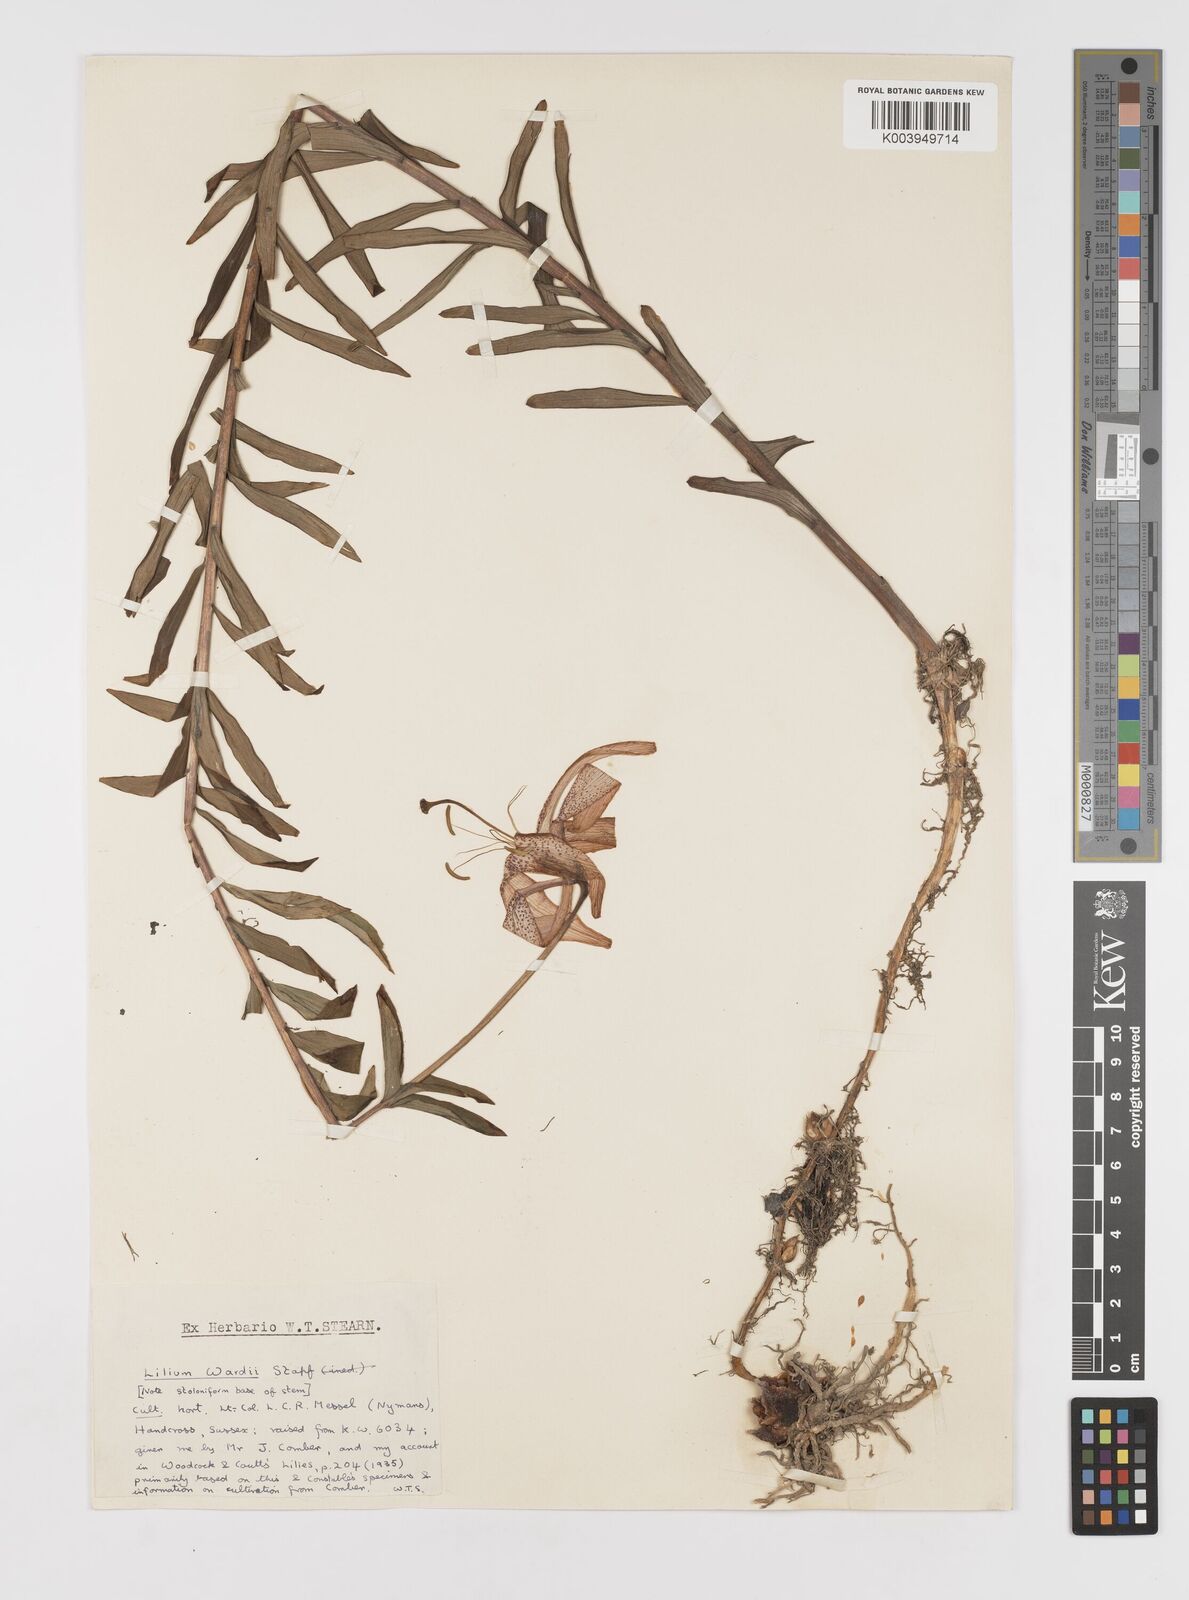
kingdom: Plantae
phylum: Tracheophyta
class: Liliopsida
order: Liliales
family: Liliaceae
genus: Lilium
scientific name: Lilium wardii
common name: Ward's lily
